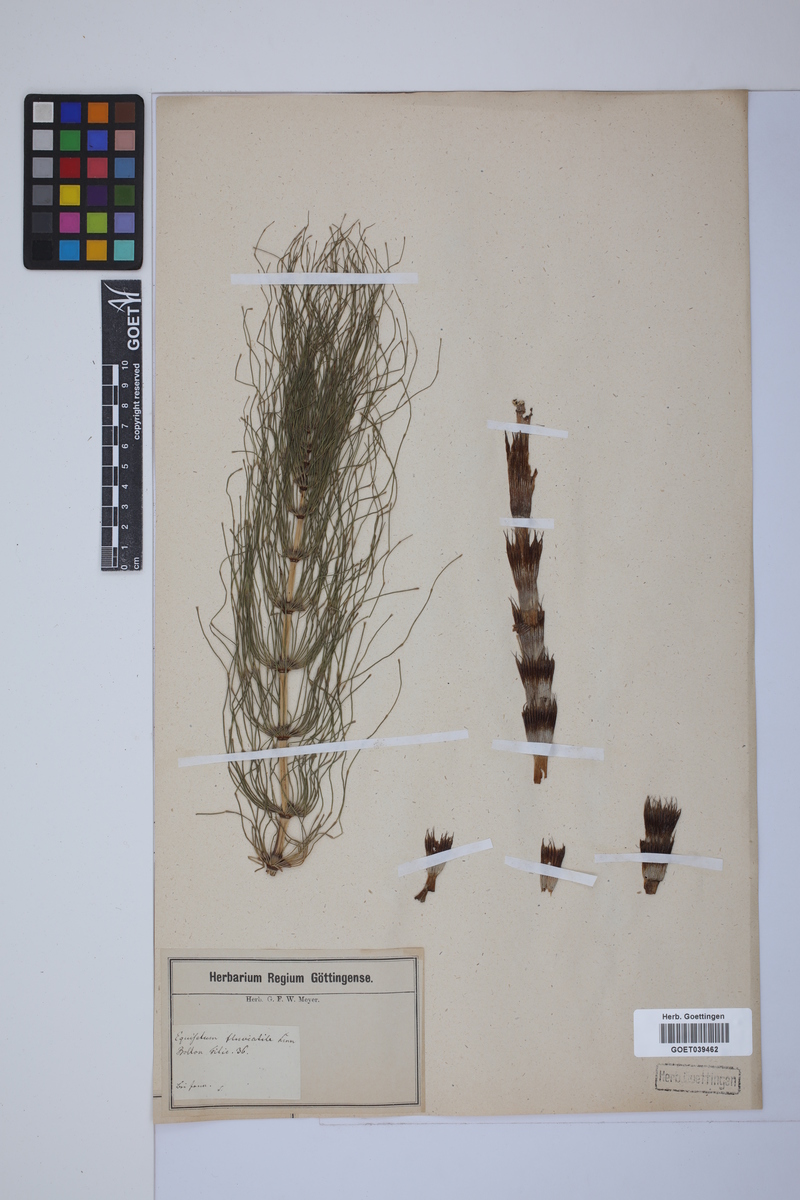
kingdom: Plantae
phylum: Tracheophyta
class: Polypodiopsida
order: Equisetales
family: Equisetaceae
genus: Equisetum
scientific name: Equisetum telmateia
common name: Great horsetail
